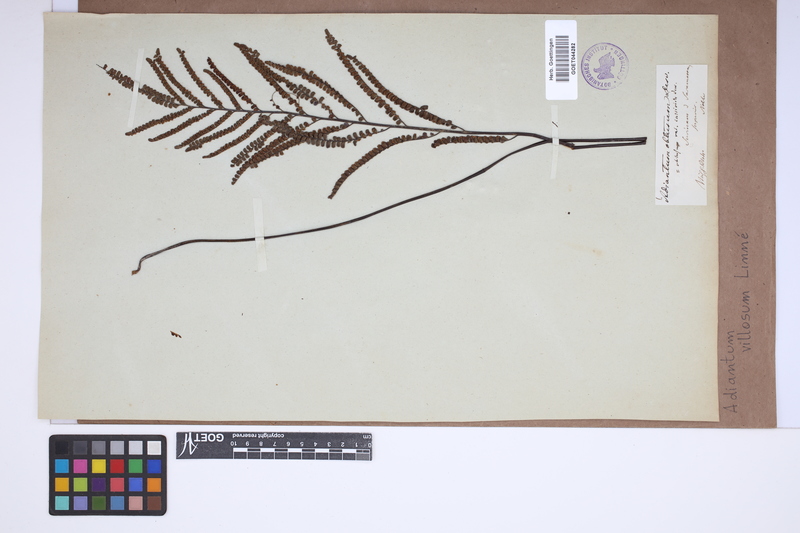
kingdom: Plantae
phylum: Tracheophyta
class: Polypodiopsida
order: Polypodiales
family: Pteridaceae
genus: Adiantum
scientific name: Adiantum villosum
